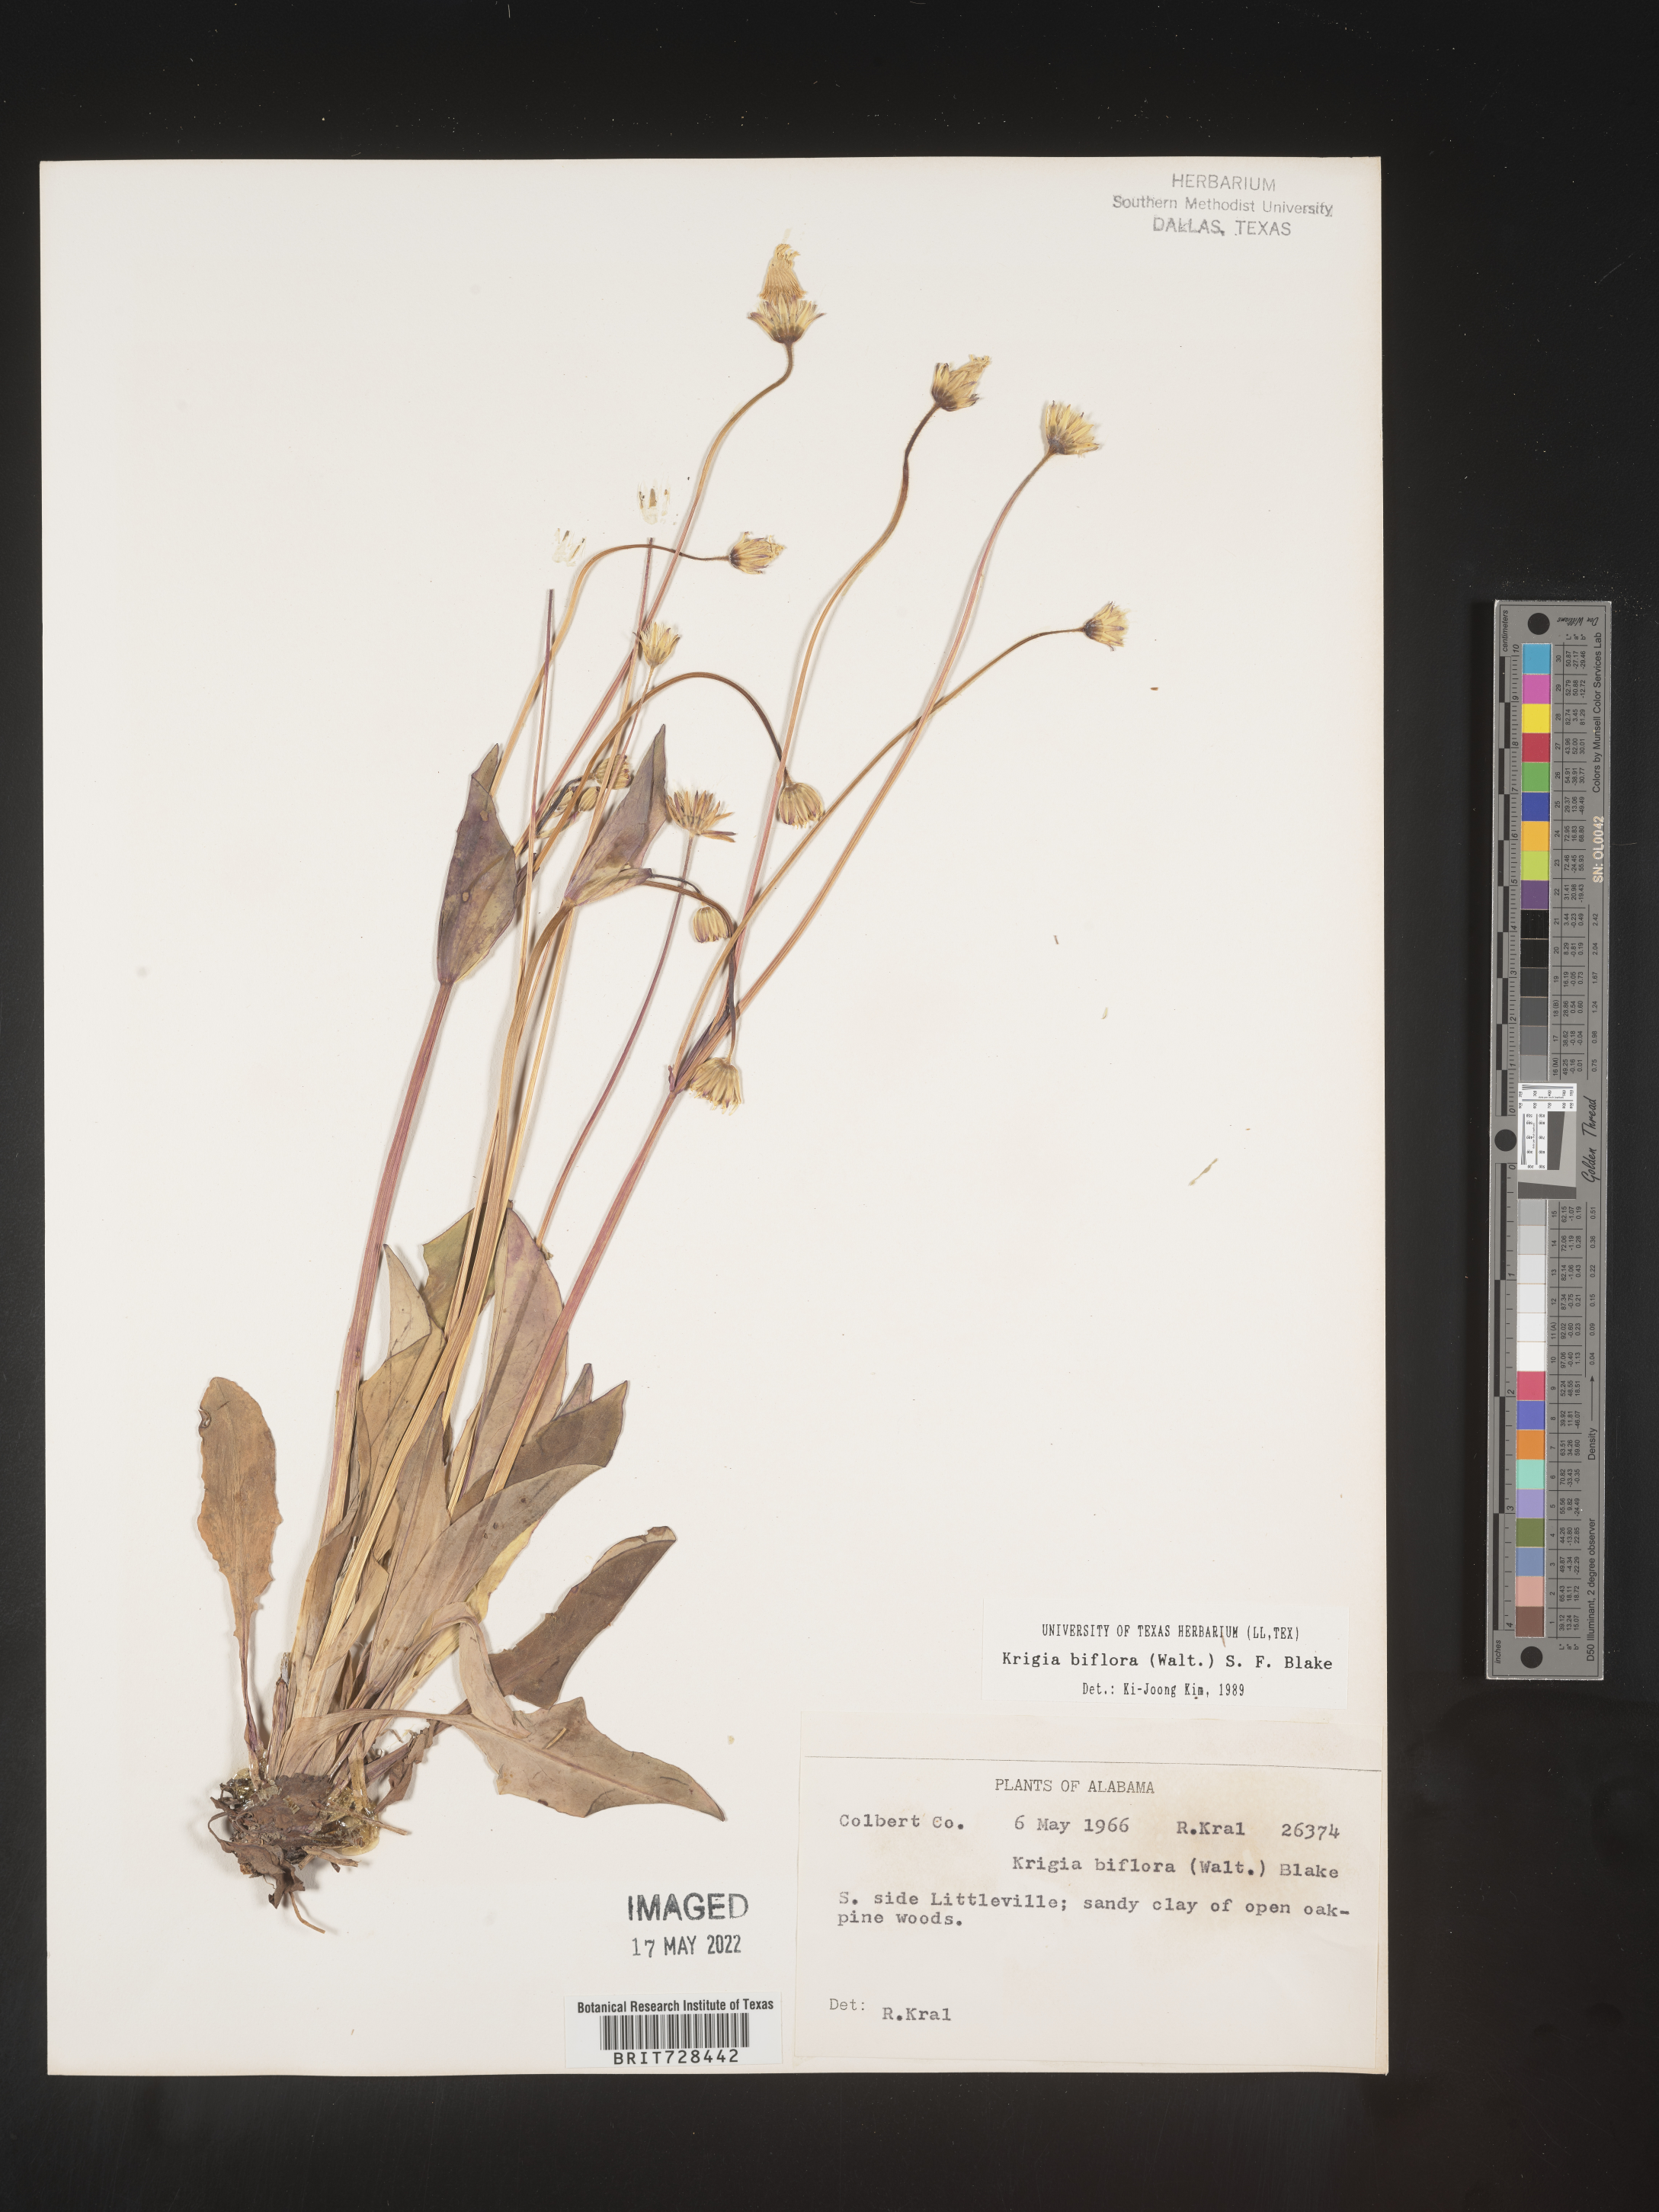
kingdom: Plantae
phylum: Tracheophyta
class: Magnoliopsida
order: Asterales
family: Asteraceae
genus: Krigia
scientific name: Krigia biflora
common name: Orange dwarf-dandelion
